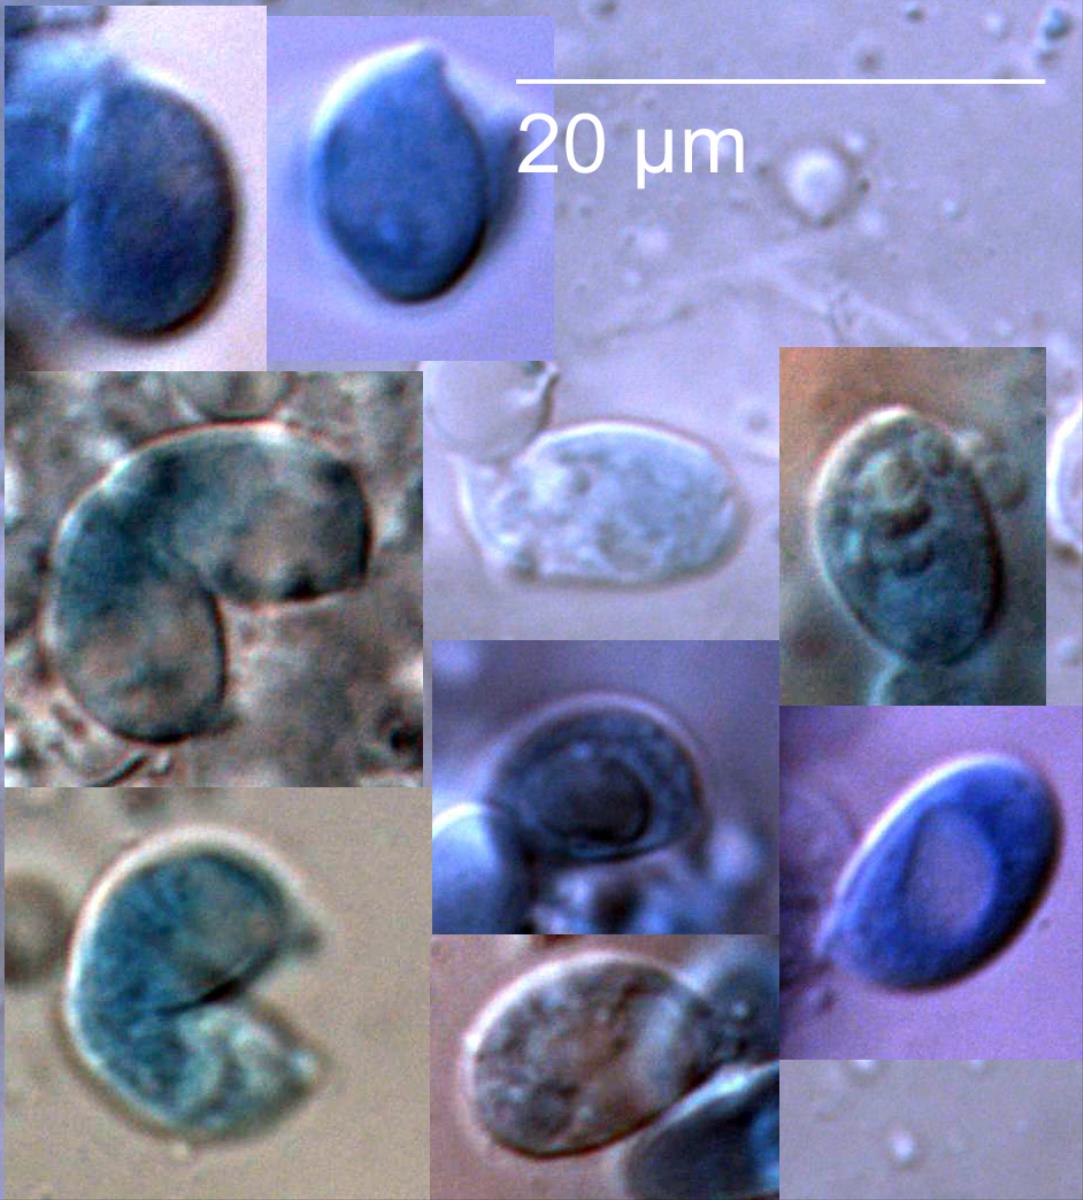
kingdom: Fungi
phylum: Basidiomycota
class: Agaricomycetes
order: Agaricales
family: Marasmiaceae
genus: Campanella
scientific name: Campanella candida
